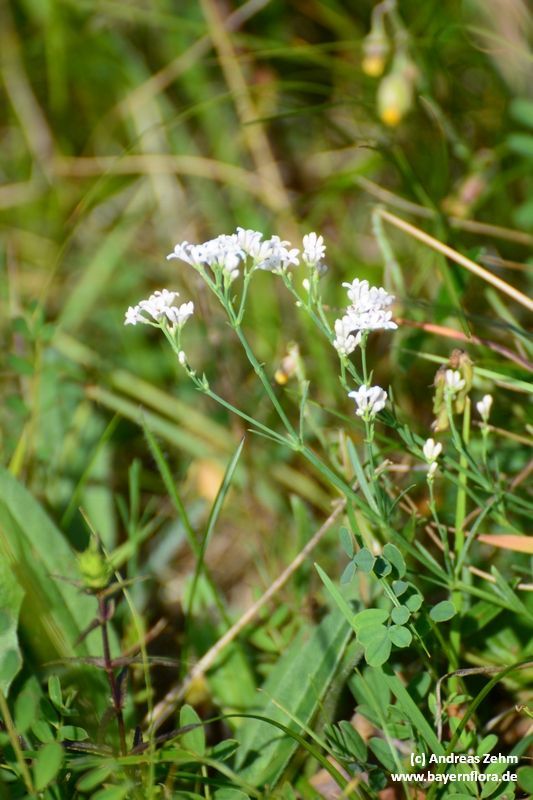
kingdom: Plantae
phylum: Tracheophyta
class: Magnoliopsida
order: Gentianales
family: Rubiaceae
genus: Cynanchica
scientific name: Cynanchica pyrenaica
